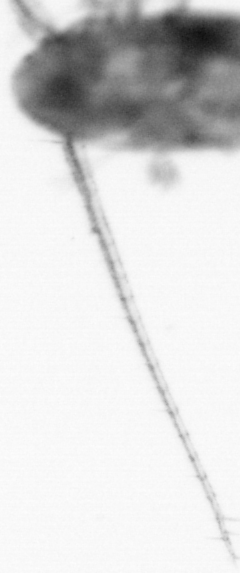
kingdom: Animalia
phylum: Arthropoda
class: Copepoda
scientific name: Copepoda
